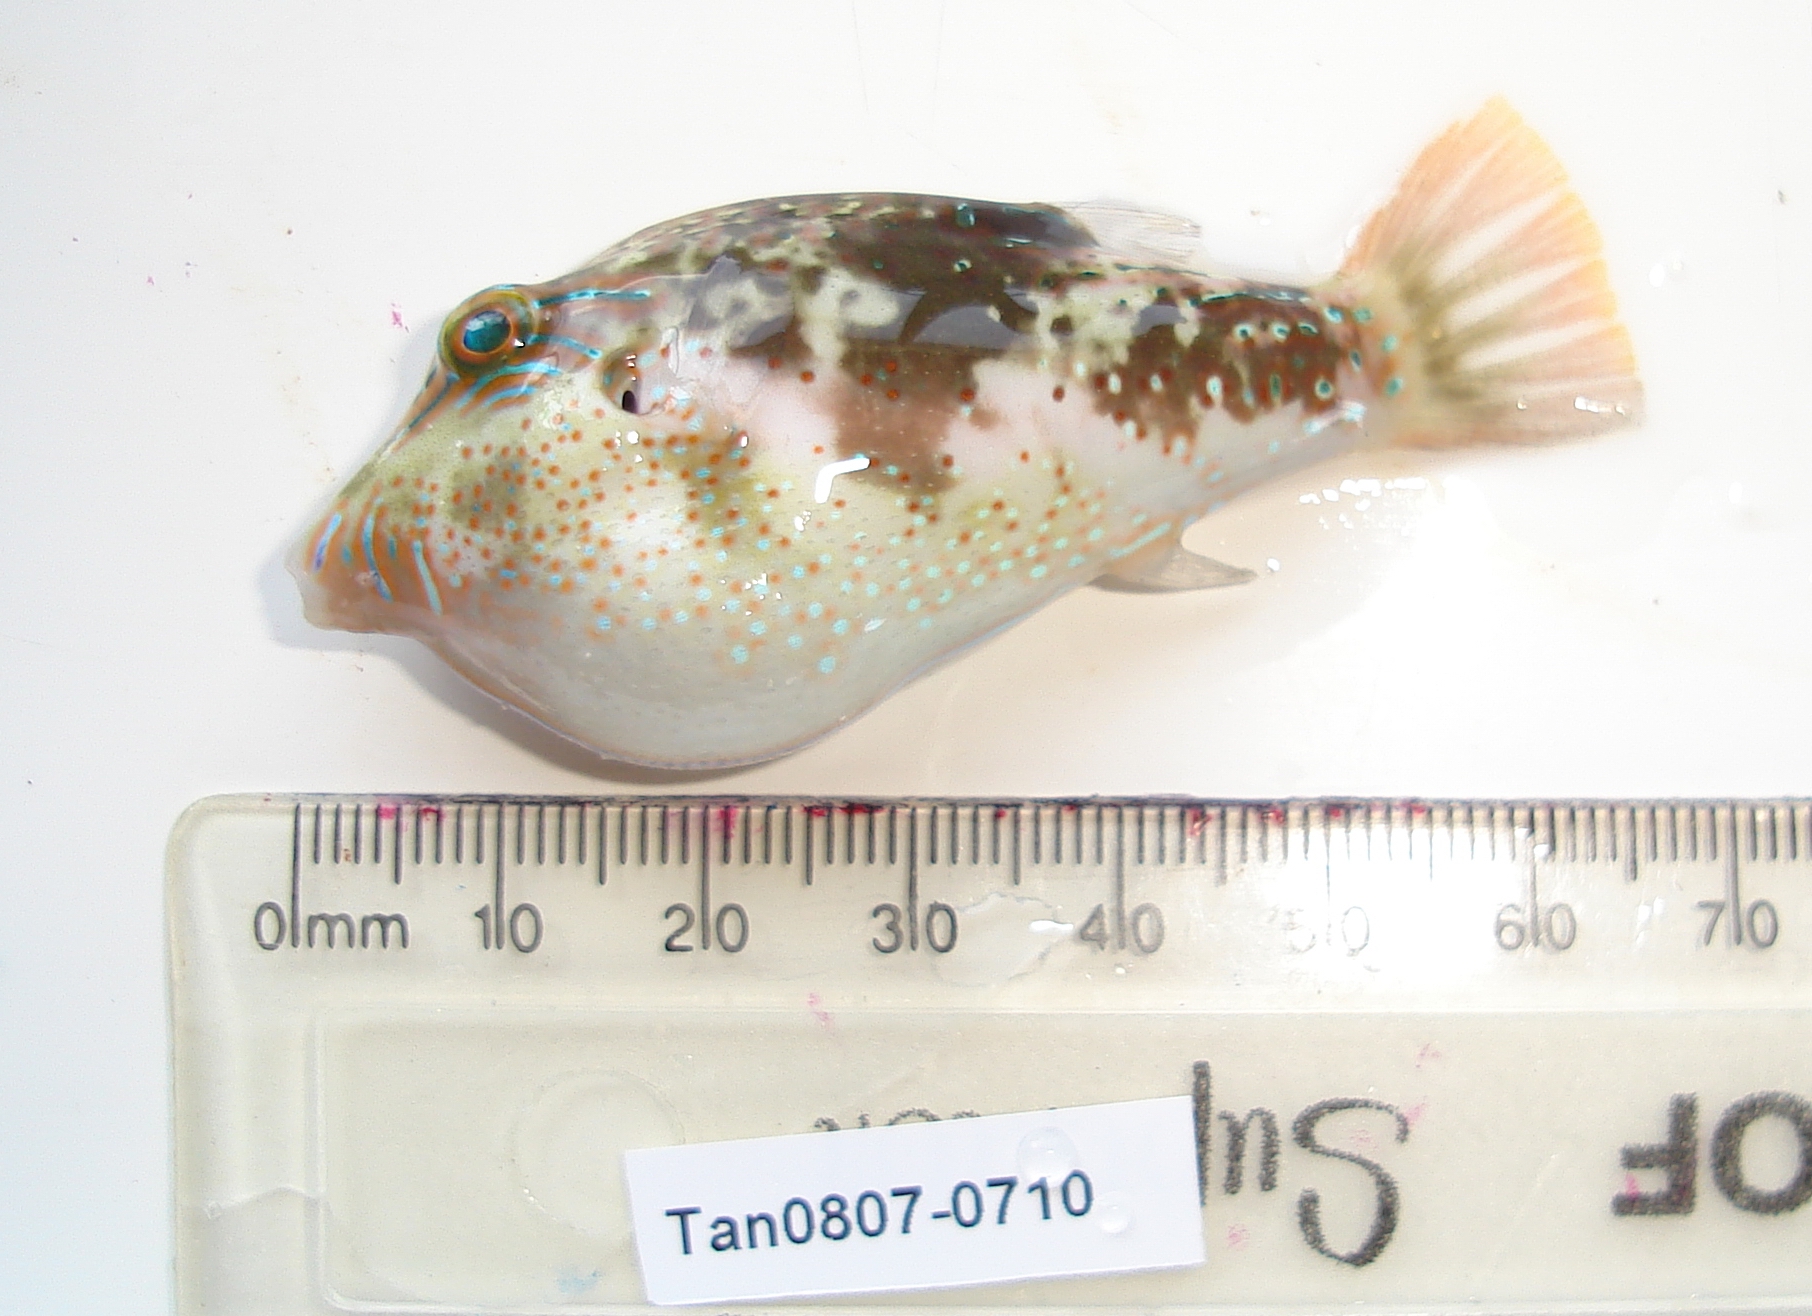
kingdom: Animalia
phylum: Chordata
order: Tetraodontiformes
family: Tetraodontidae
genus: Canthigaster
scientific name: Canthigaster bennetti
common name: Bennett's pufferfish
